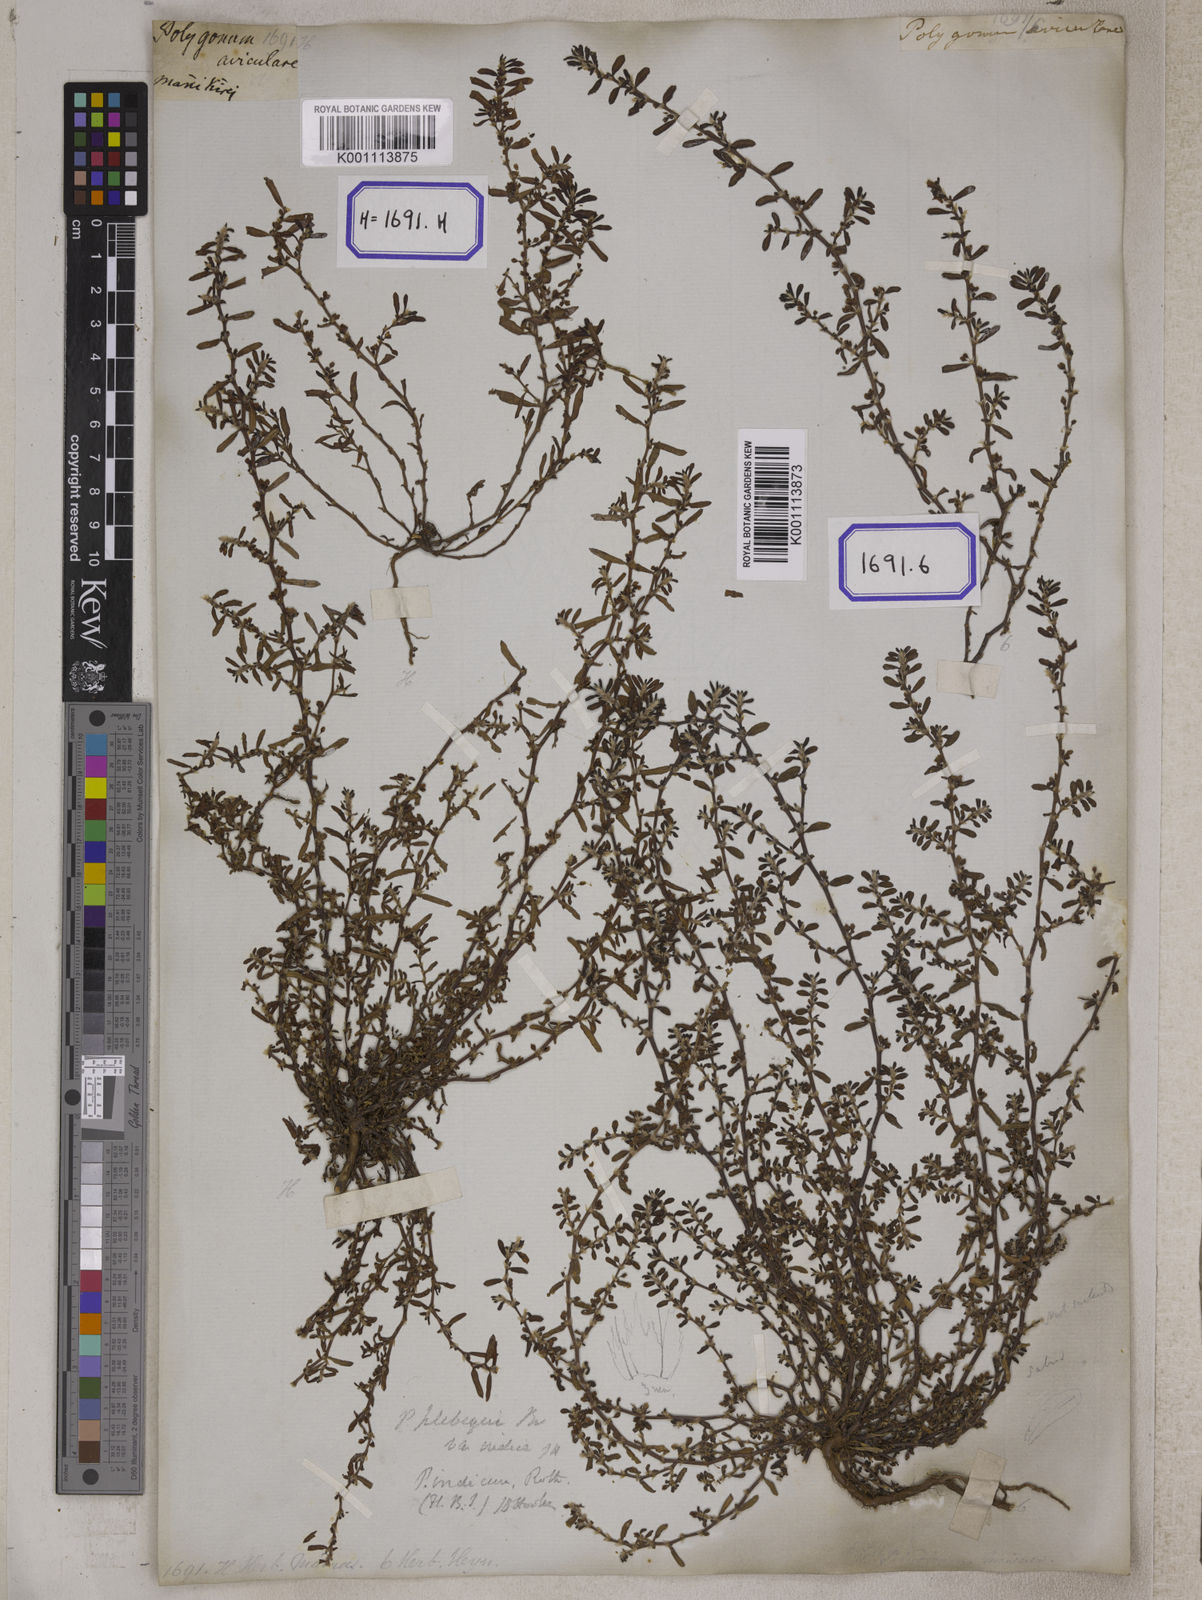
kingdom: Plantae
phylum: Tracheophyta
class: Magnoliopsida
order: Caryophyllales
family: Polygonaceae
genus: Polygonum
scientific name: Polygonum plebeium
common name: Common knotweed
